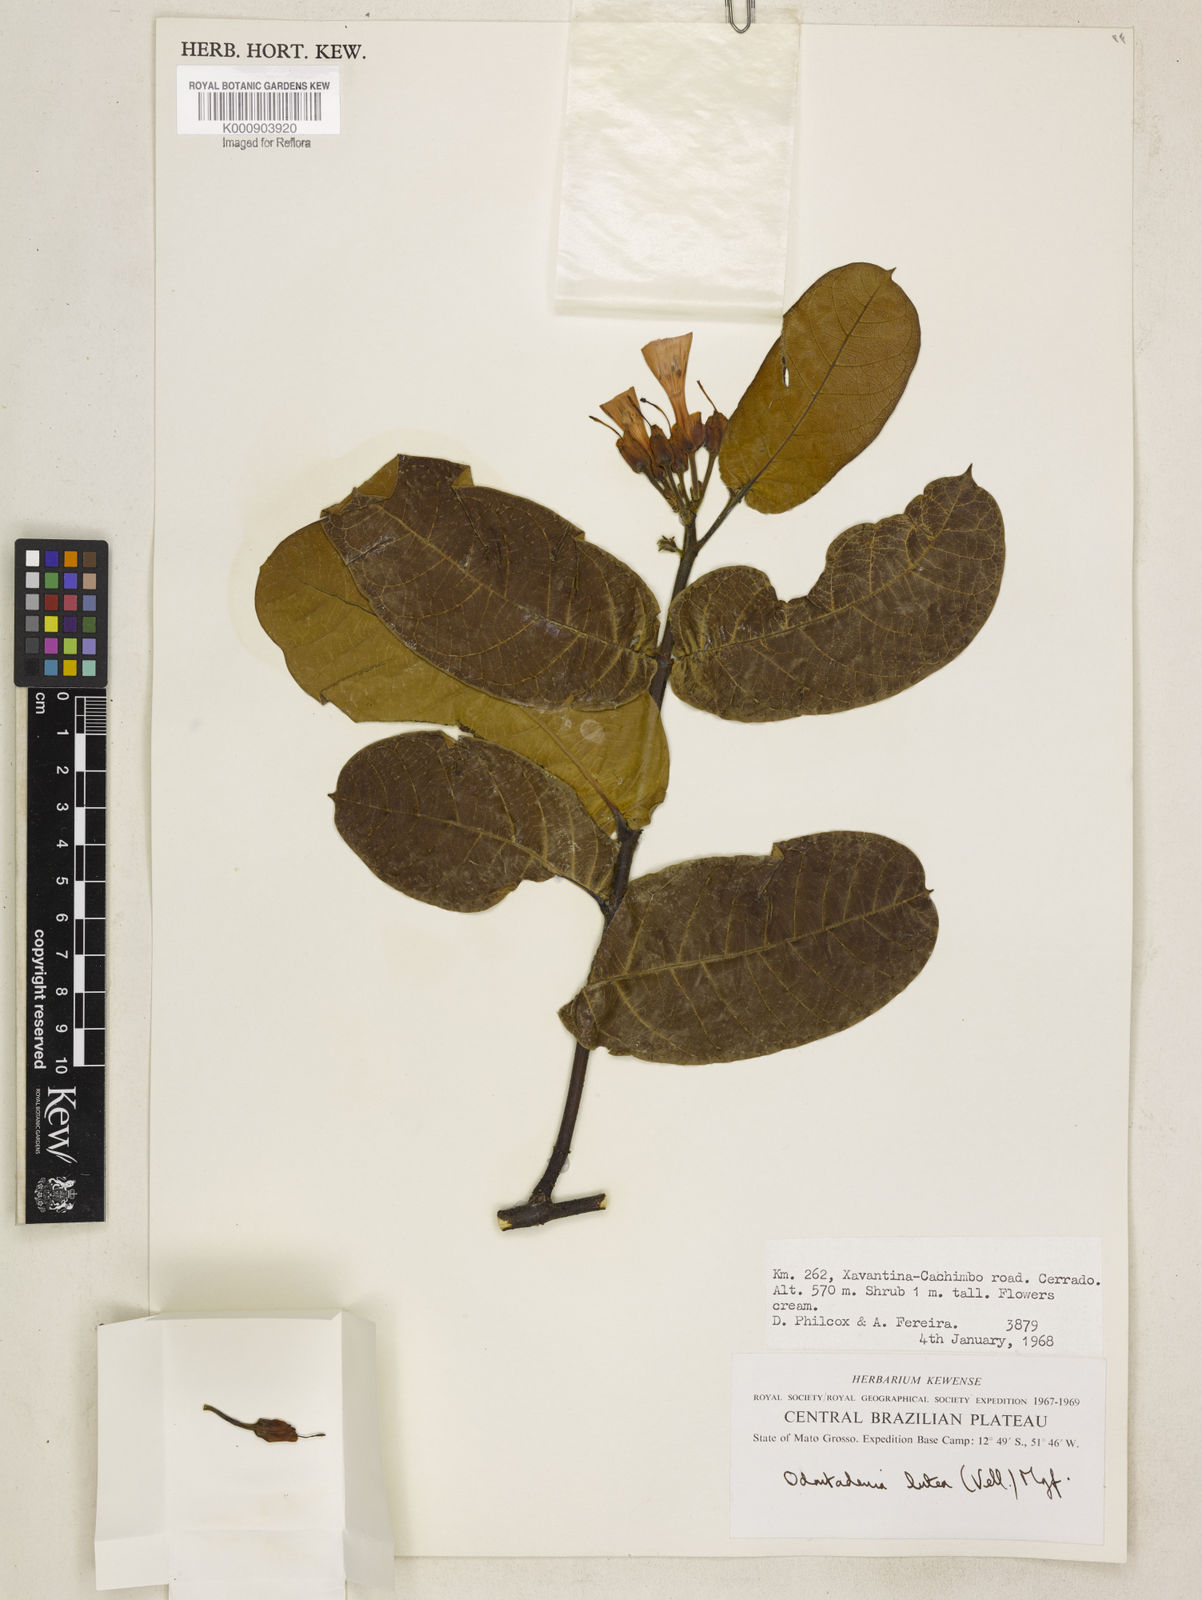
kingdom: Plantae
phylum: Tracheophyta
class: Magnoliopsida
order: Gentianales
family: Apocynaceae
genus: Odontadenia
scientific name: Odontadenia lutea
